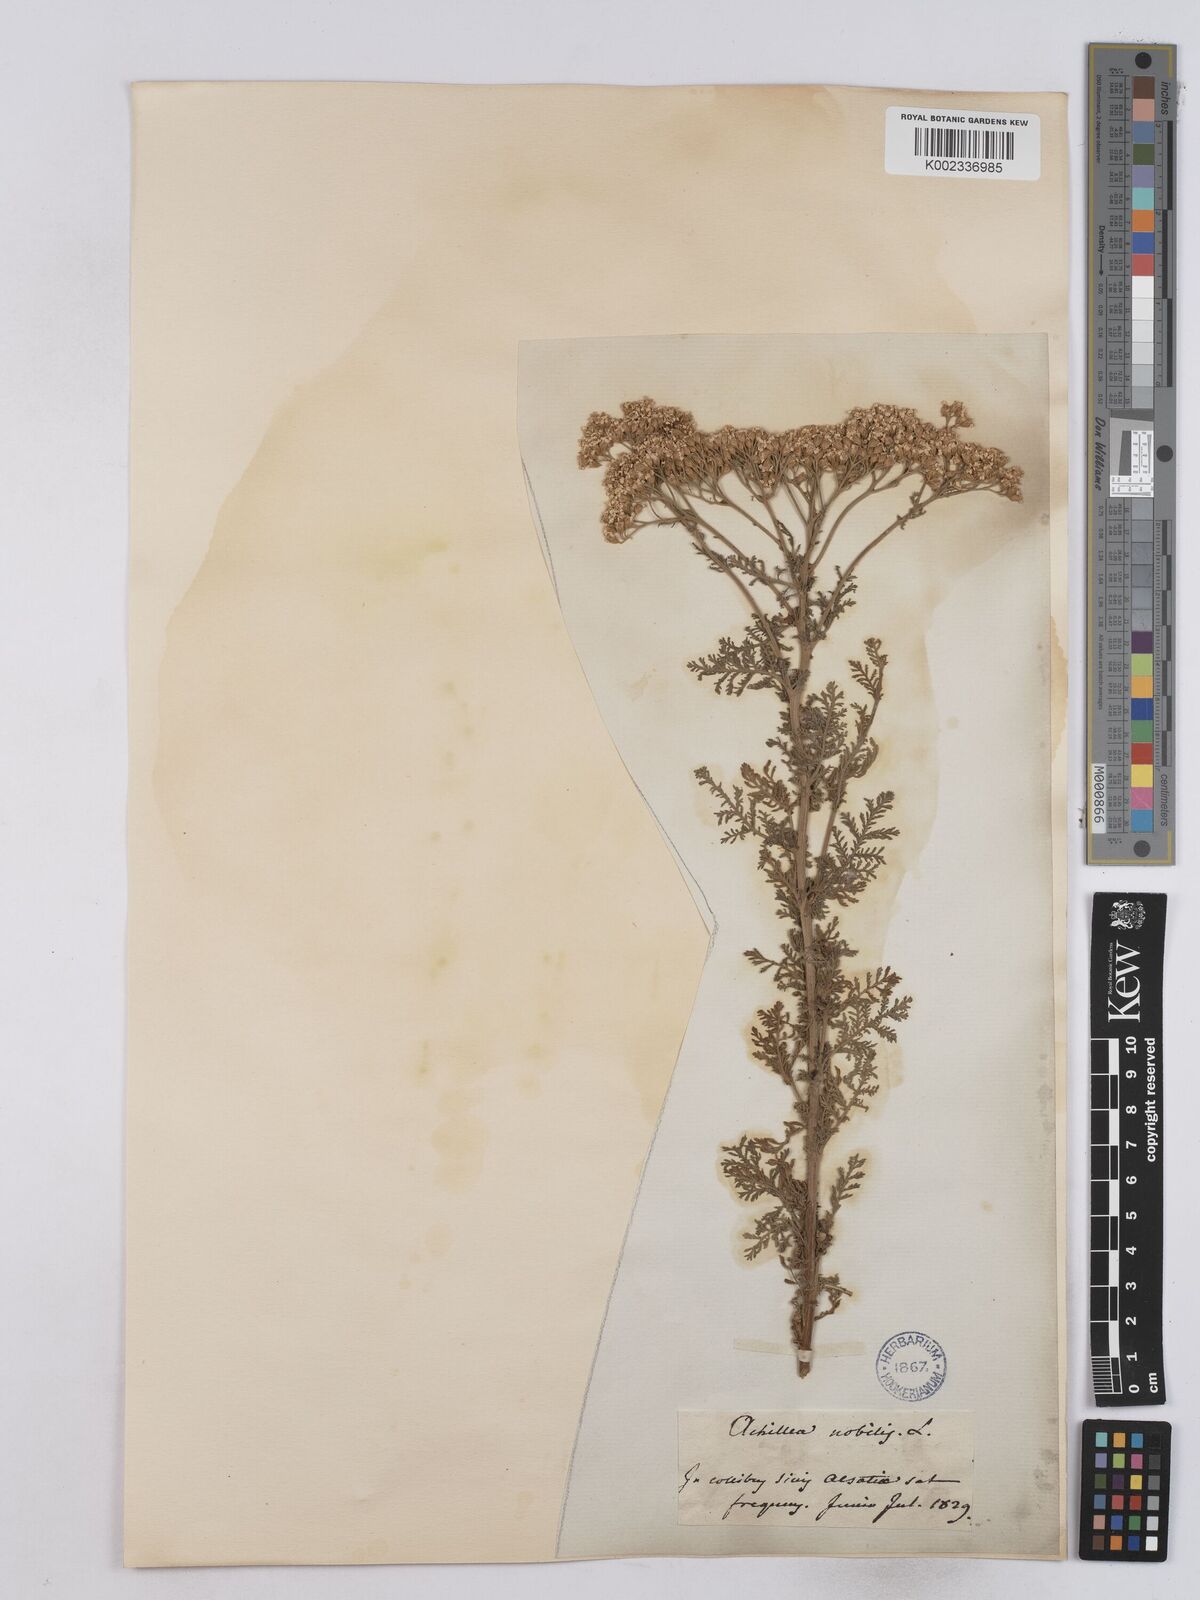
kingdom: Plantae
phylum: Tracheophyta
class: Magnoliopsida
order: Asterales
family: Asteraceae
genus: Achillea
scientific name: Achillea nobilis
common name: Noble yarrow
